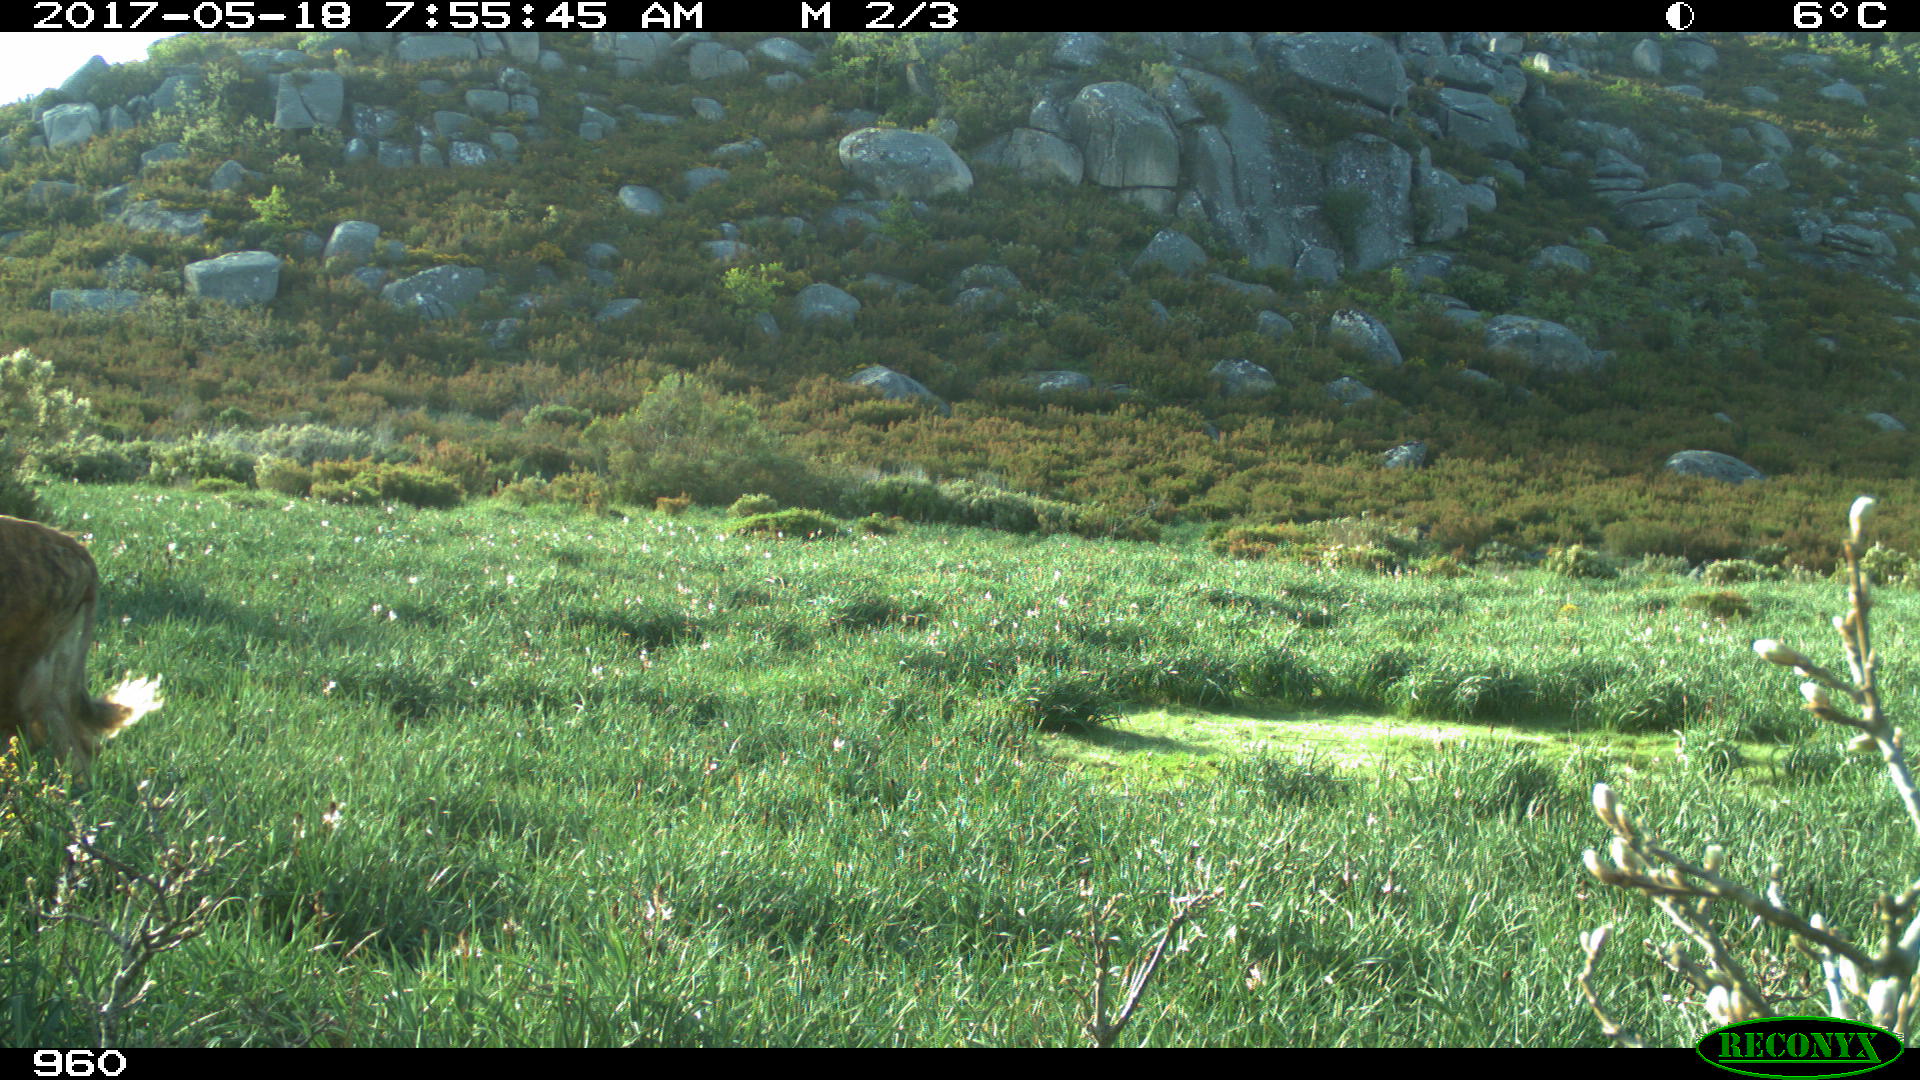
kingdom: Animalia
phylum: Chordata
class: Mammalia
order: Artiodactyla
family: Bovidae
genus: Bos
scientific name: Bos taurus
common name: Domesticated cattle
